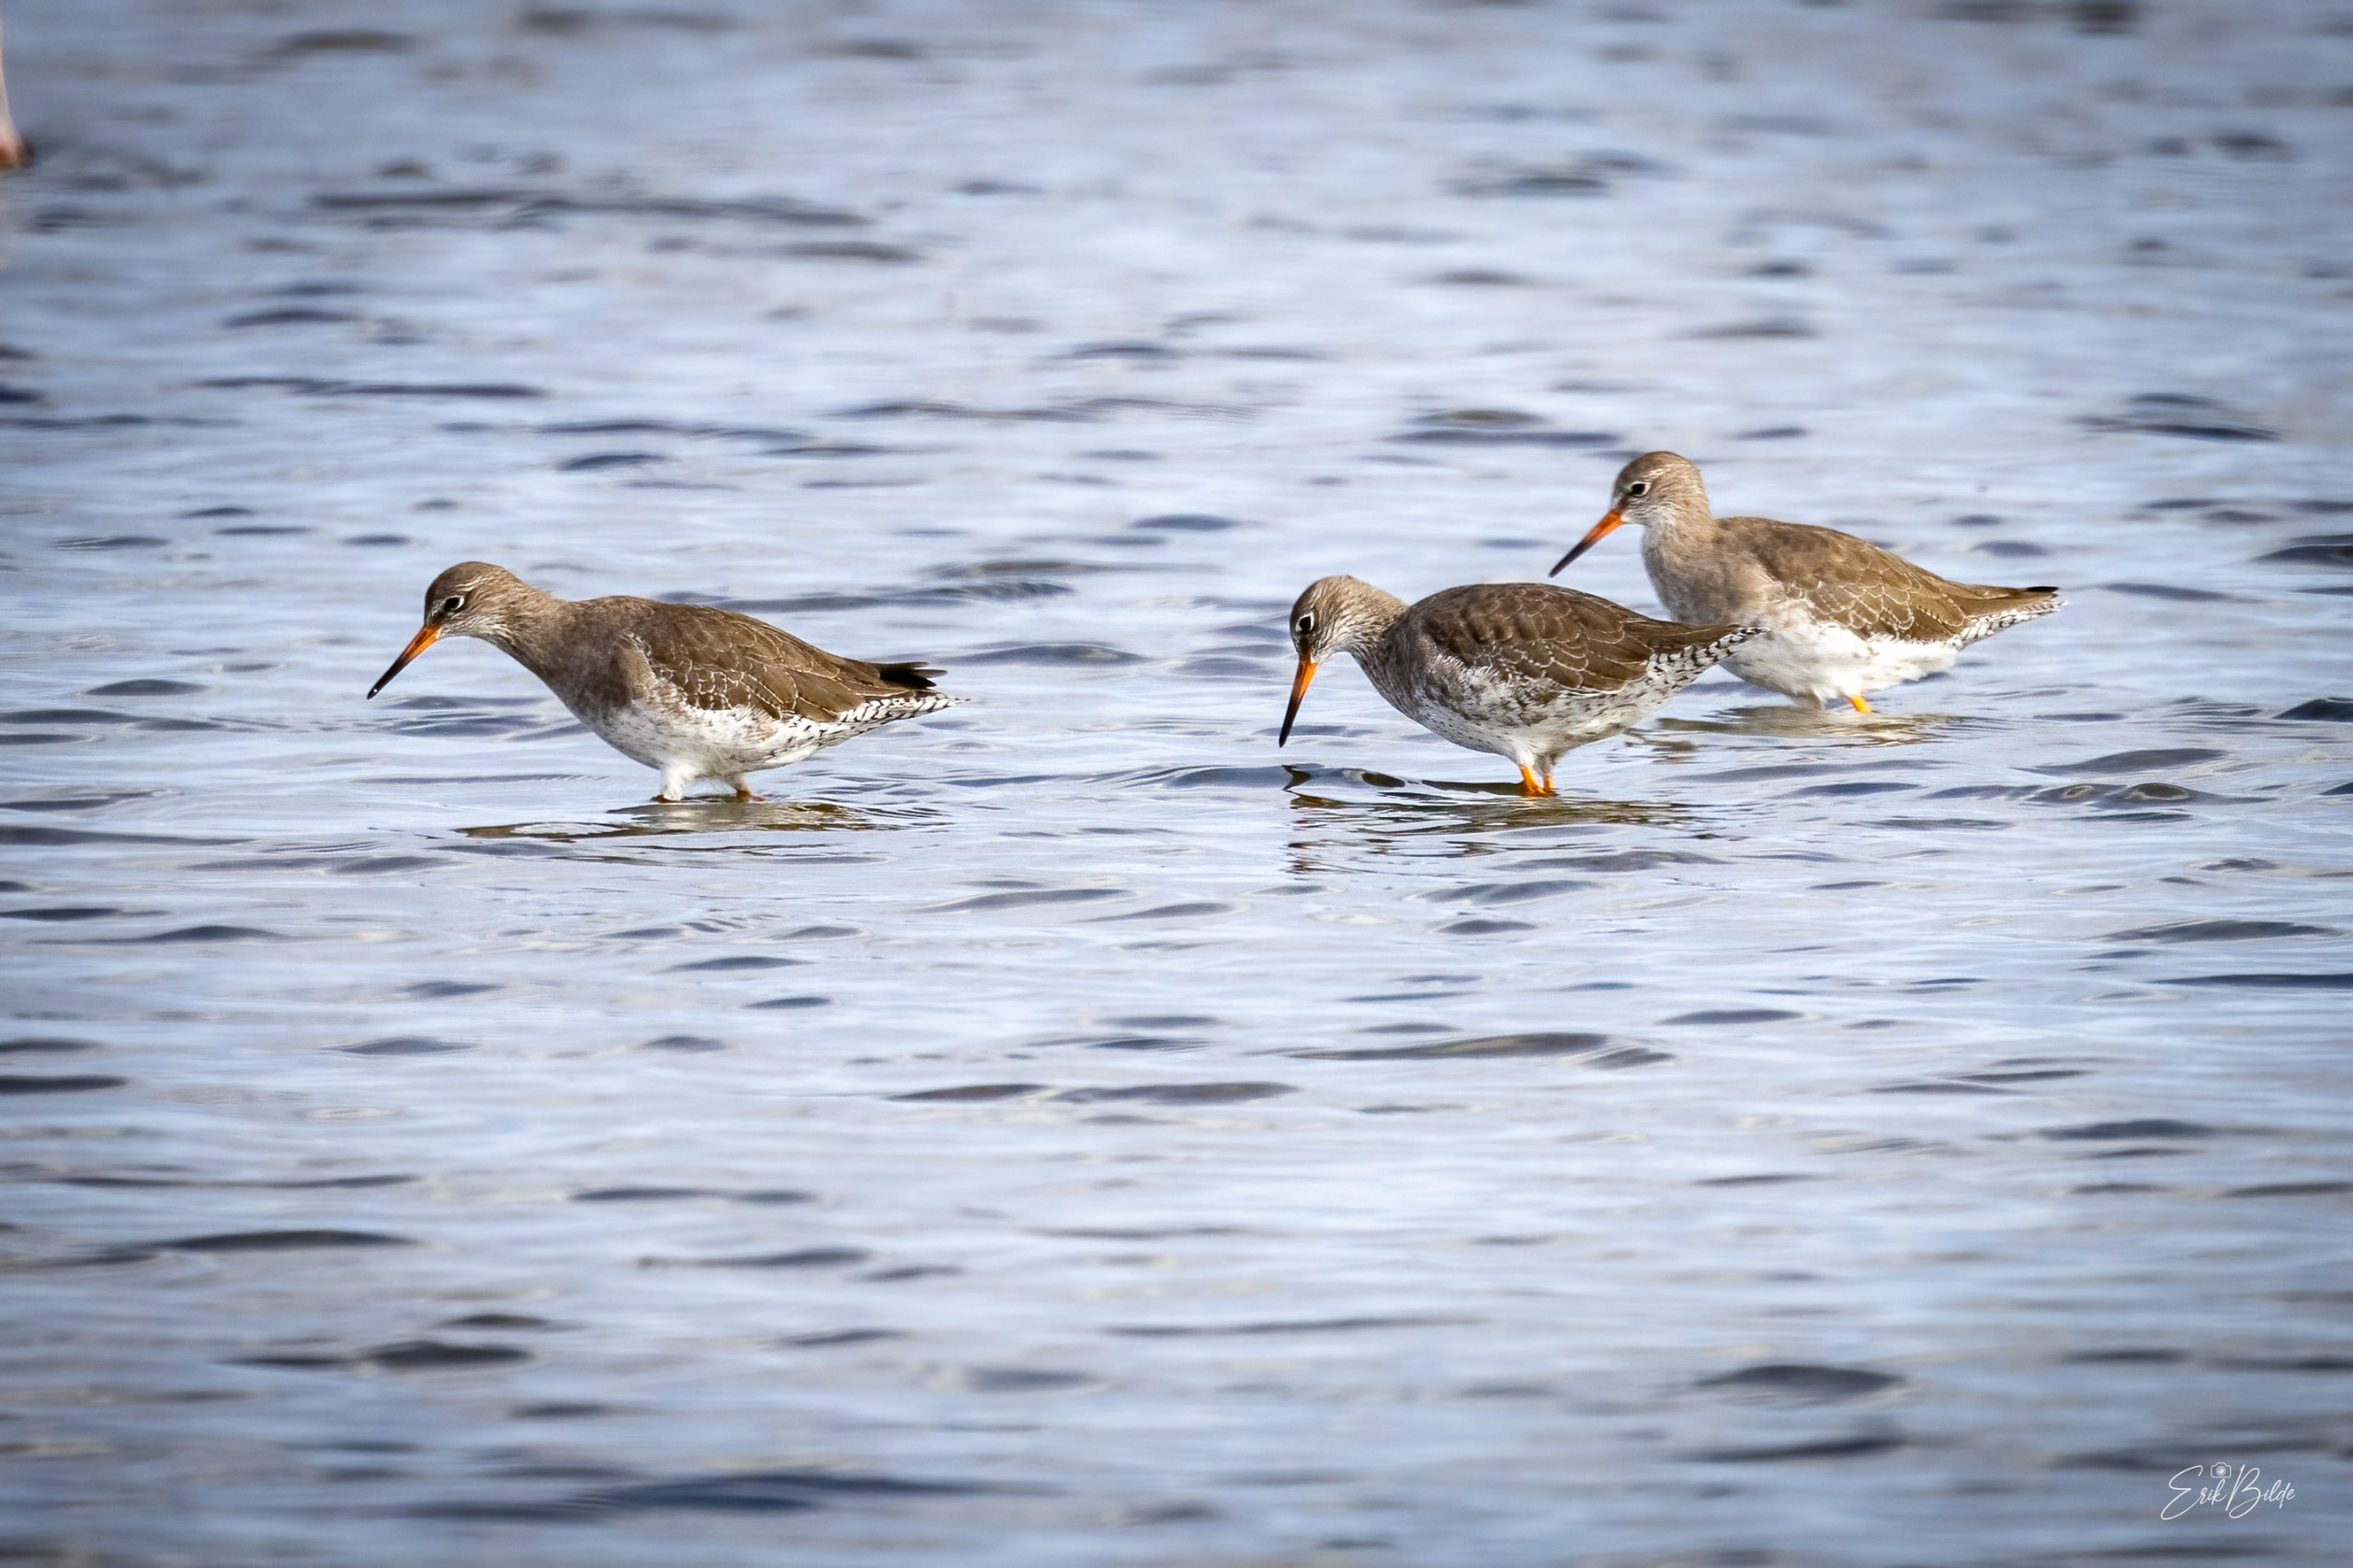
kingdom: Animalia
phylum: Chordata
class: Aves
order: Charadriiformes
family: Scolopacidae
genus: Tringa
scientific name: Tringa totanus
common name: Rødben
